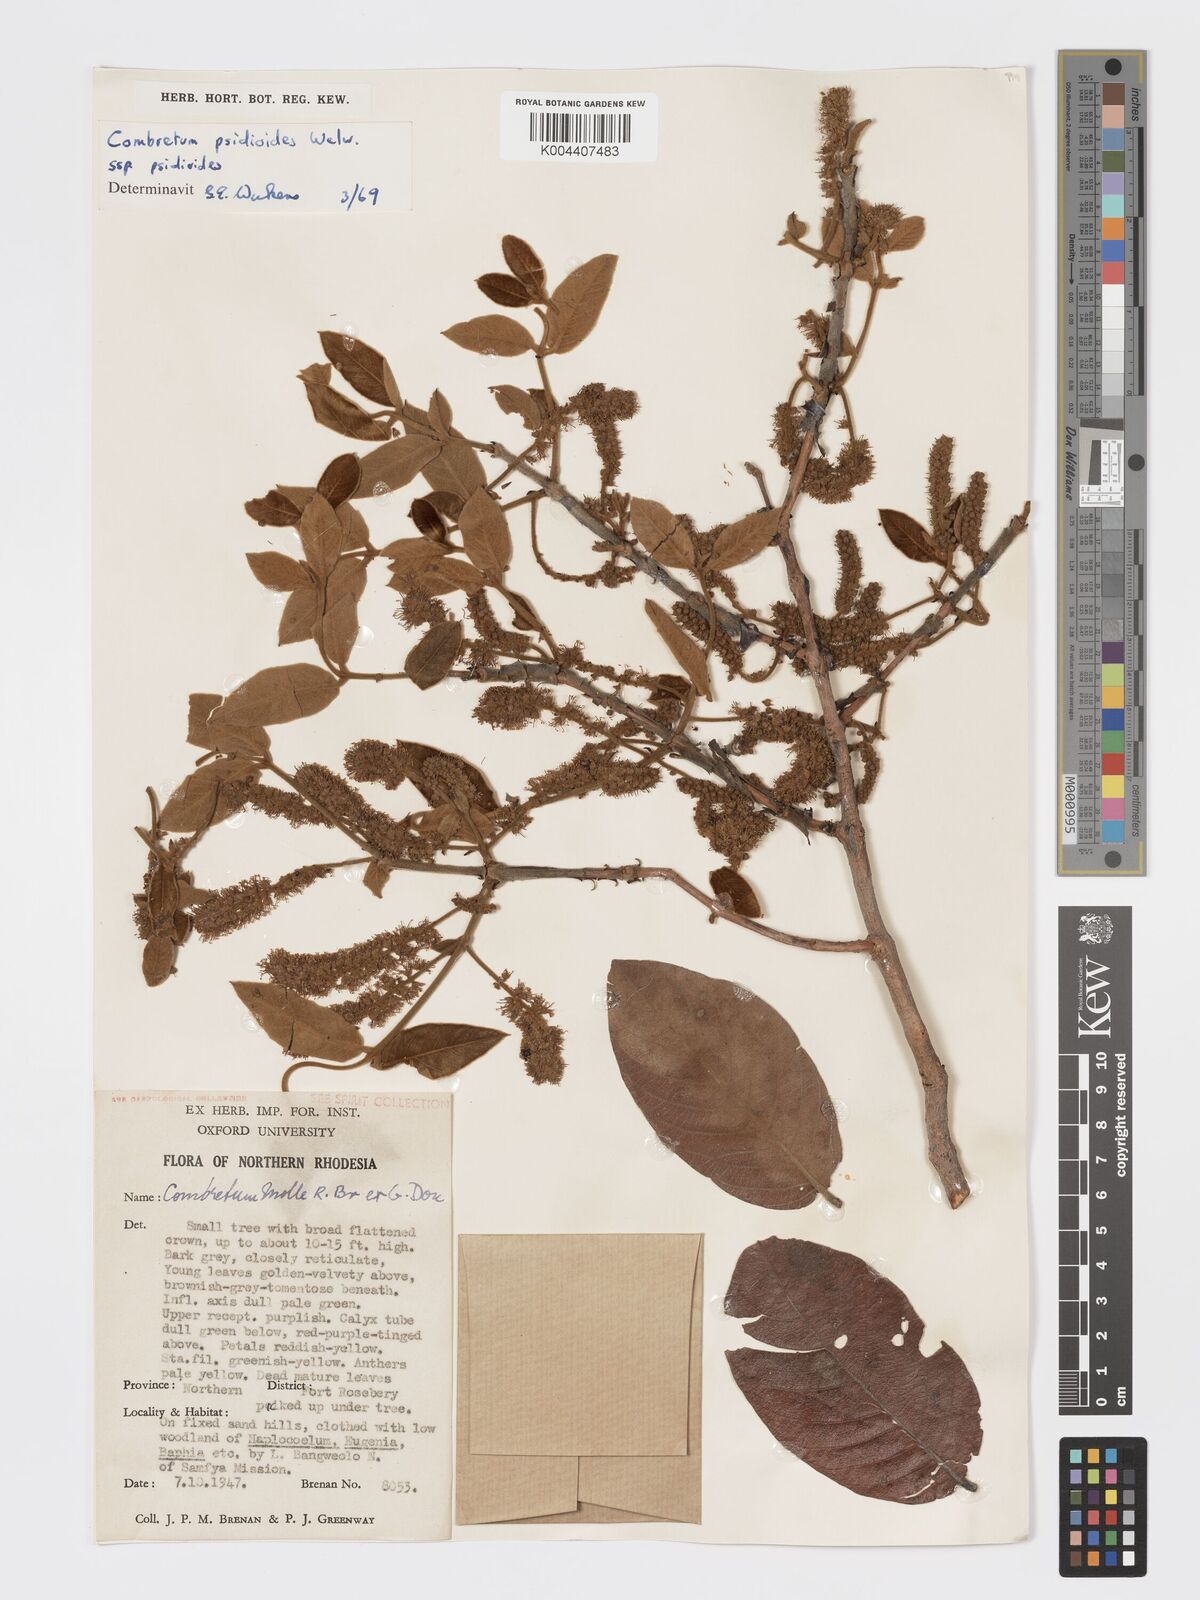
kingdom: Plantae
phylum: Tracheophyta
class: Magnoliopsida
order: Myrtales
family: Combretaceae
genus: Combretum
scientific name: Combretum psidioides
